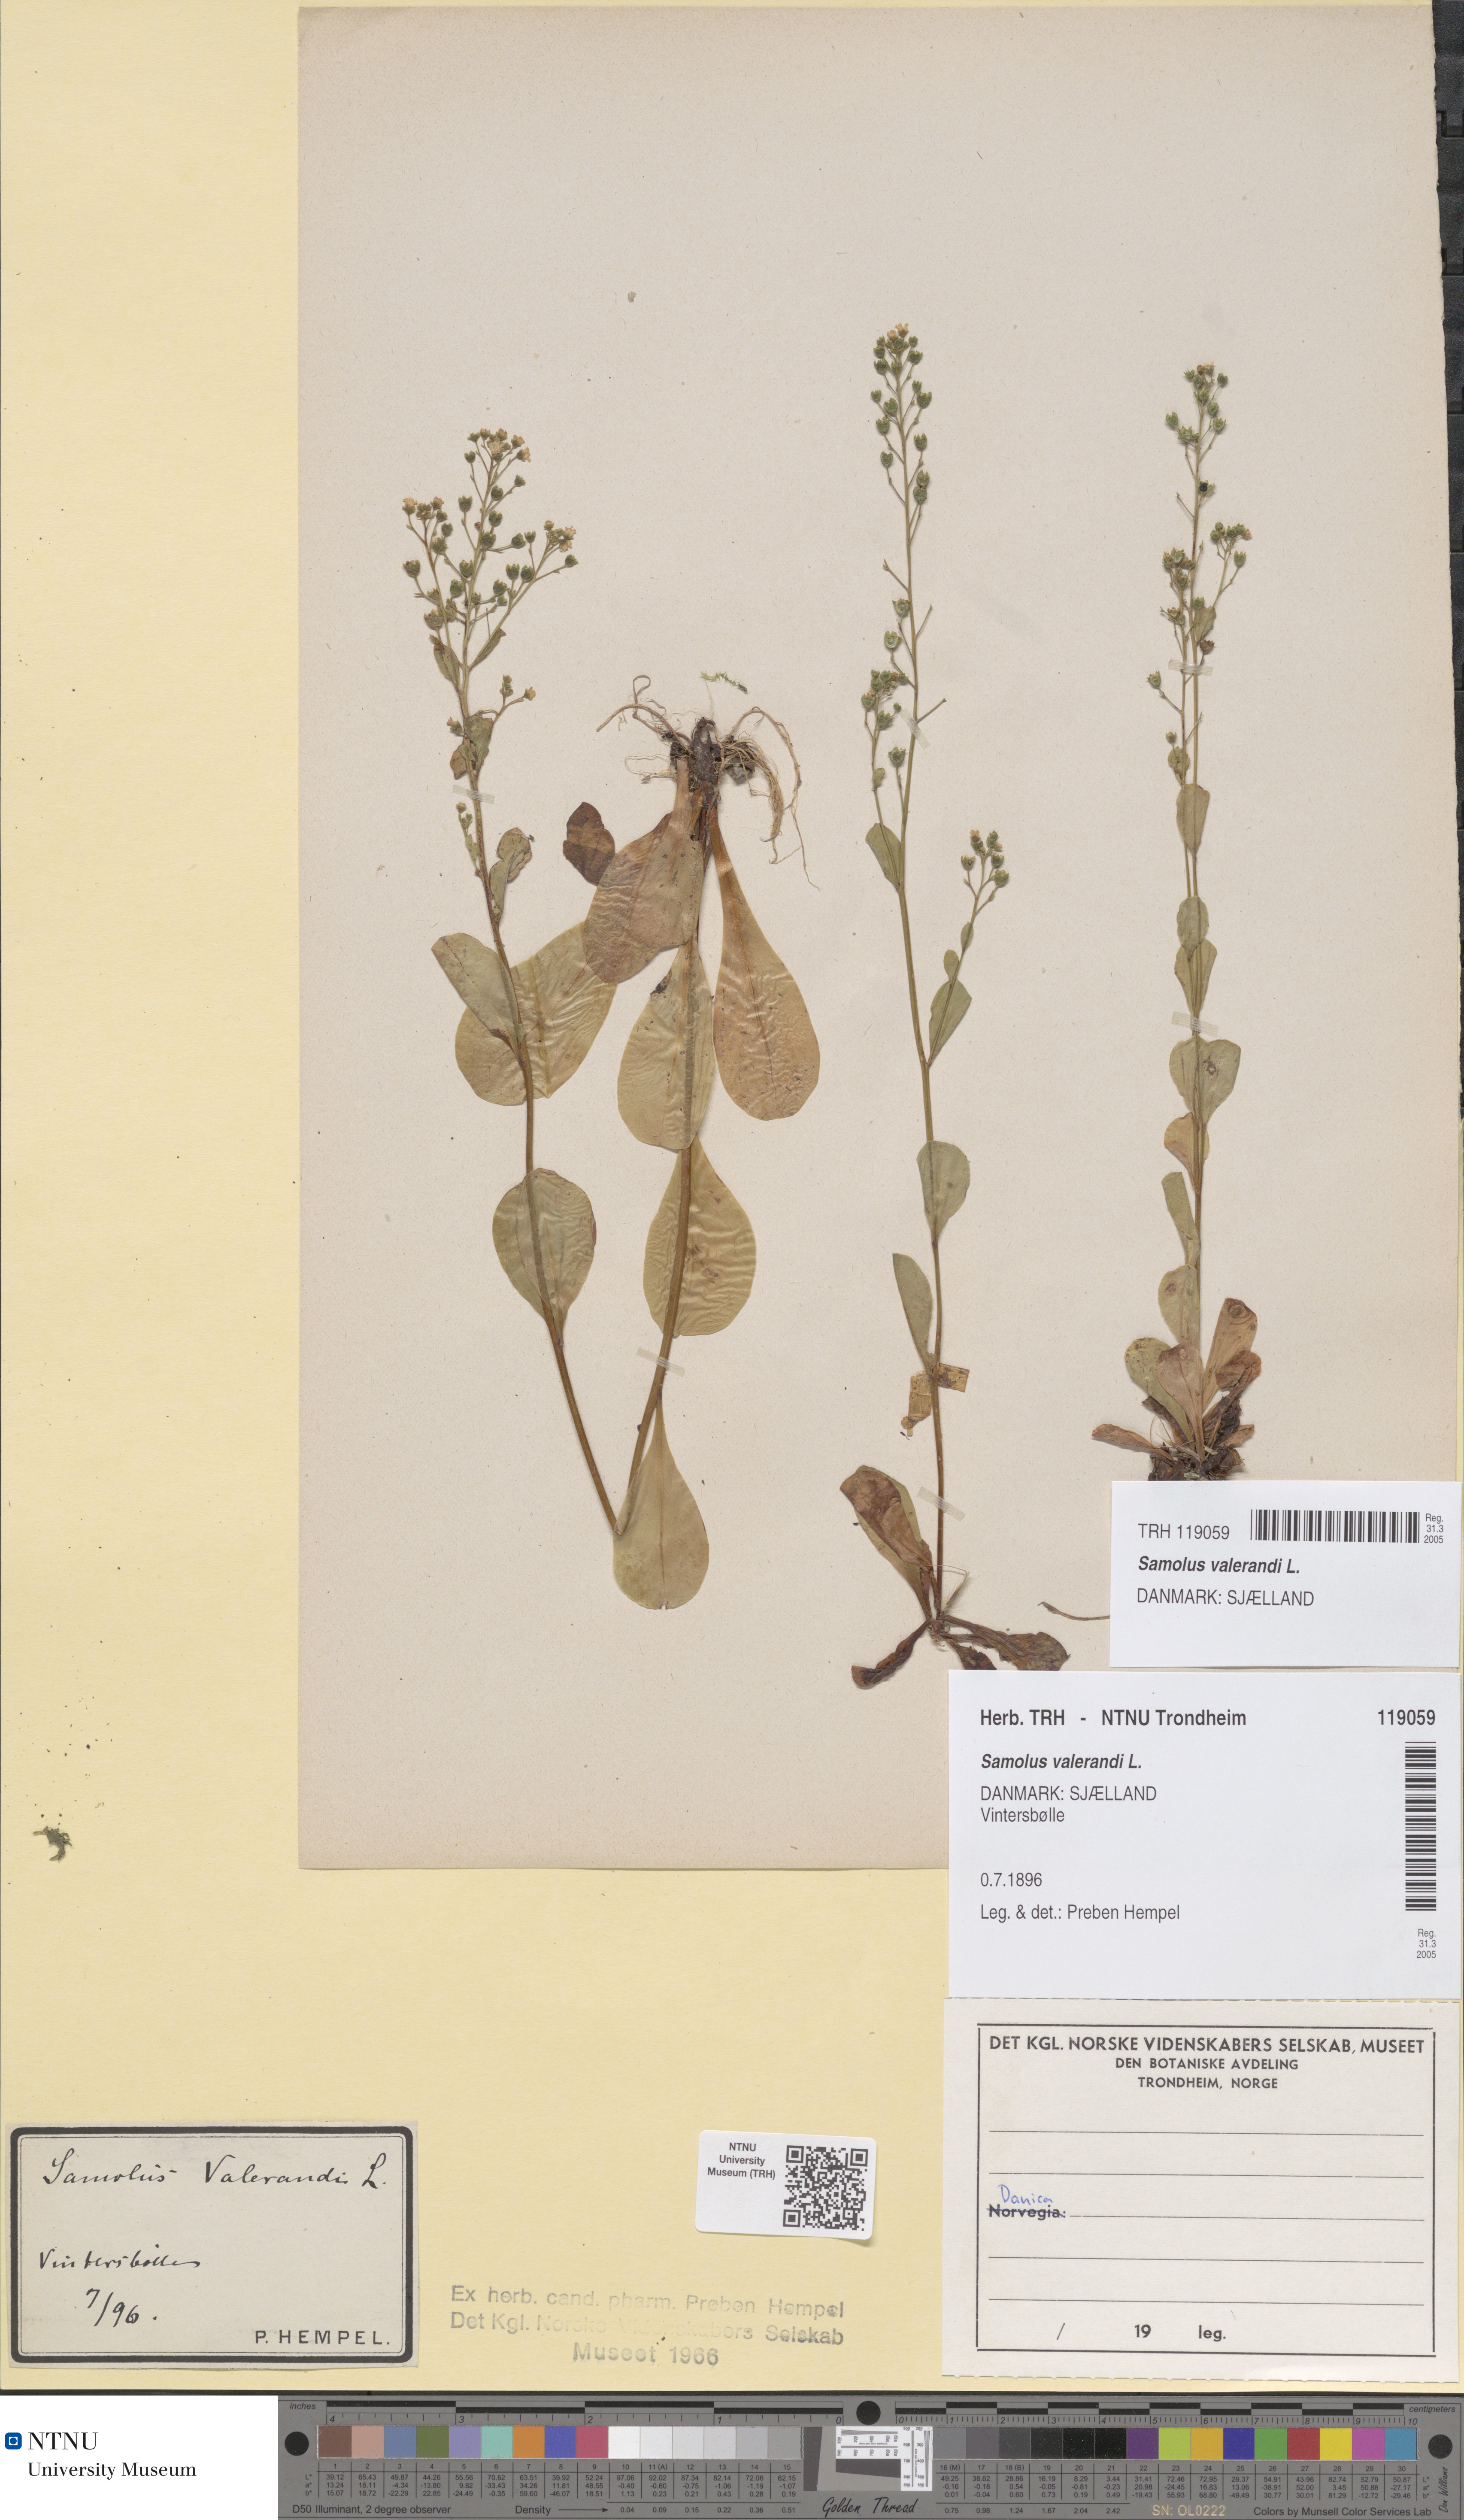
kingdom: Plantae
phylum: Tracheophyta
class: Magnoliopsida
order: Ericales
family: Primulaceae
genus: Samolus
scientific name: Samolus valerandi
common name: Brookweed
